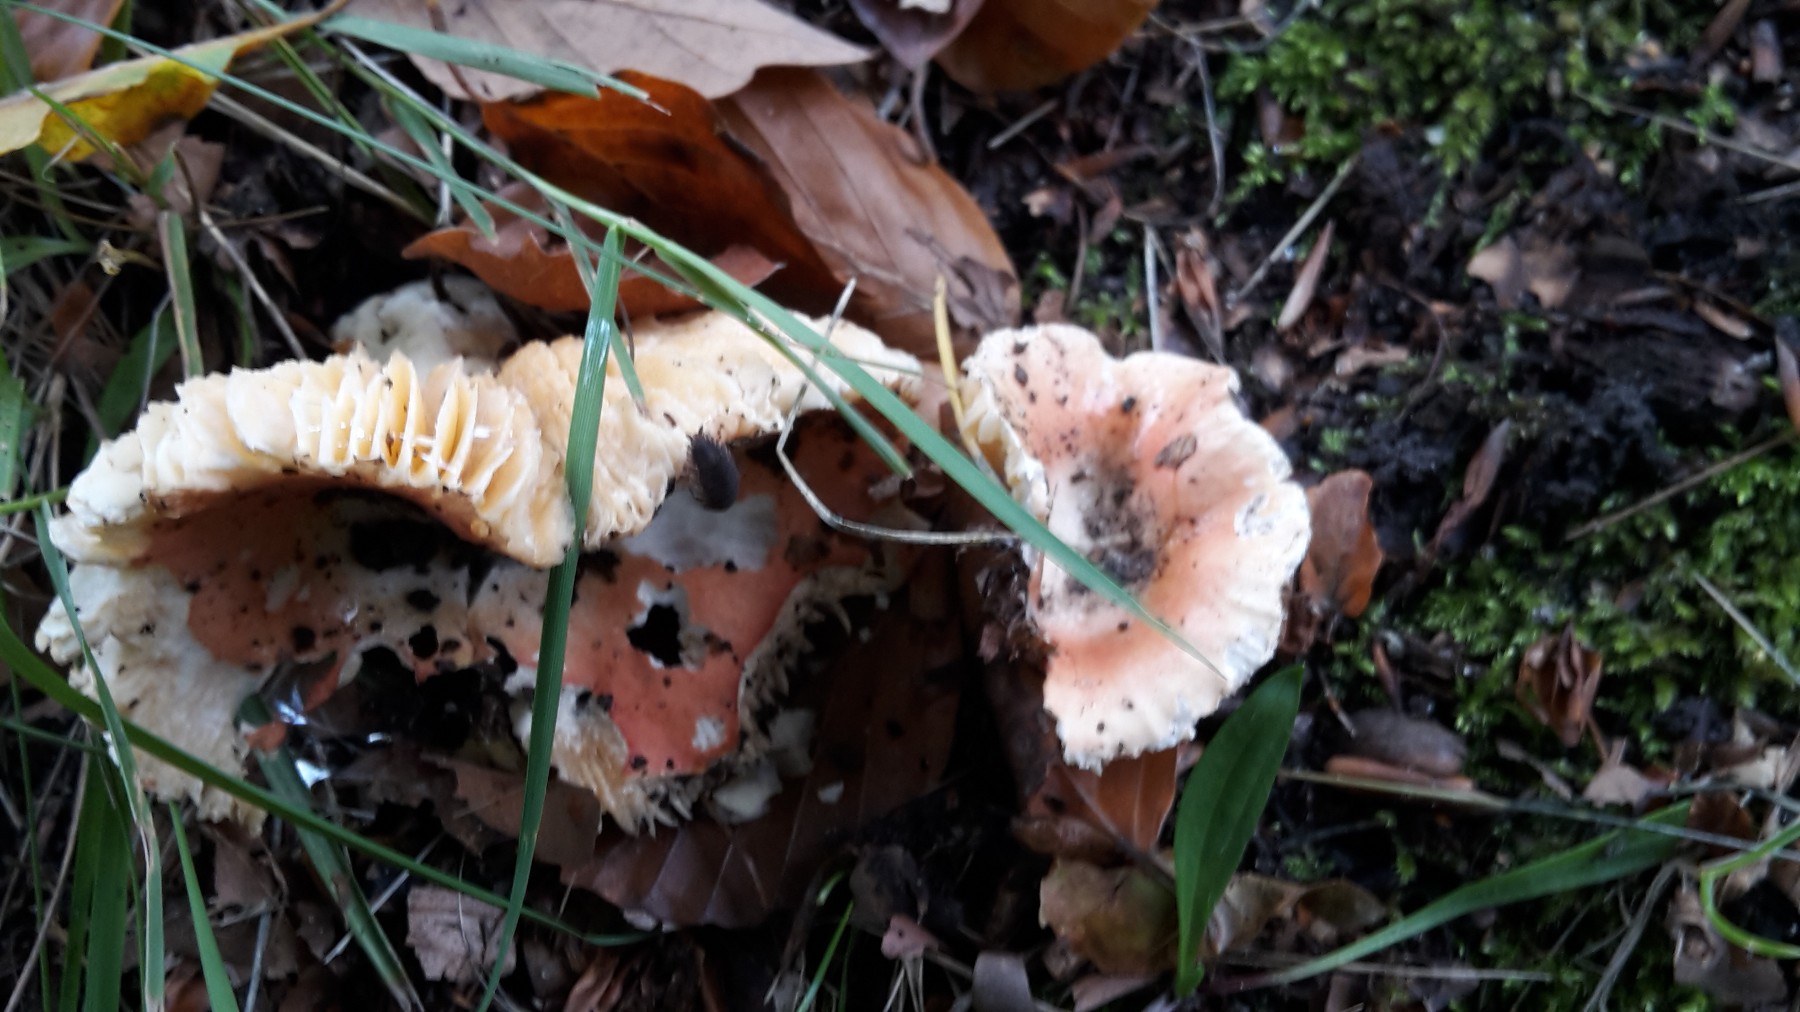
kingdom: Fungi
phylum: Basidiomycota
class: Agaricomycetes
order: Russulales
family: Russulaceae
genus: Russula
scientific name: Russula risigallina
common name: abrikos-skørhat
